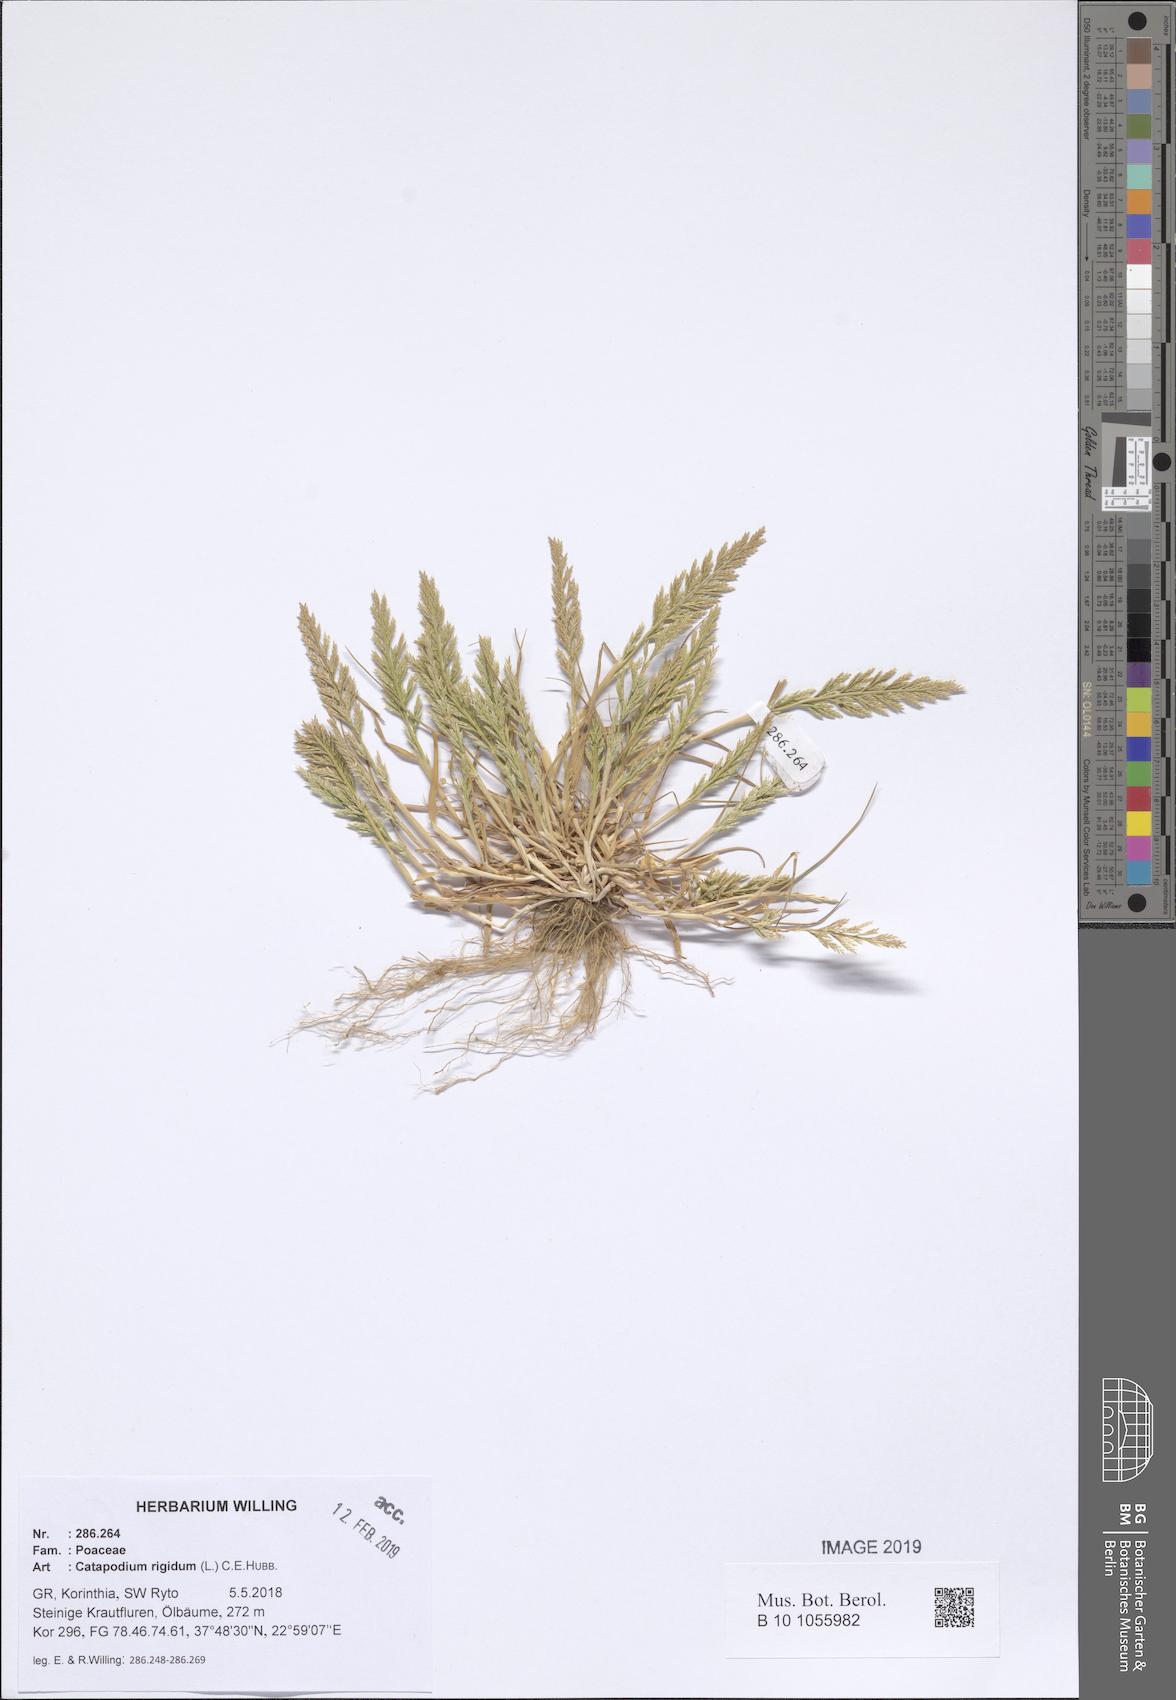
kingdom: Plantae
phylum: Tracheophyta
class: Liliopsida
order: Poales
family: Poaceae
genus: Catapodium
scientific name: Catapodium rigidum
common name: Fern-grass
